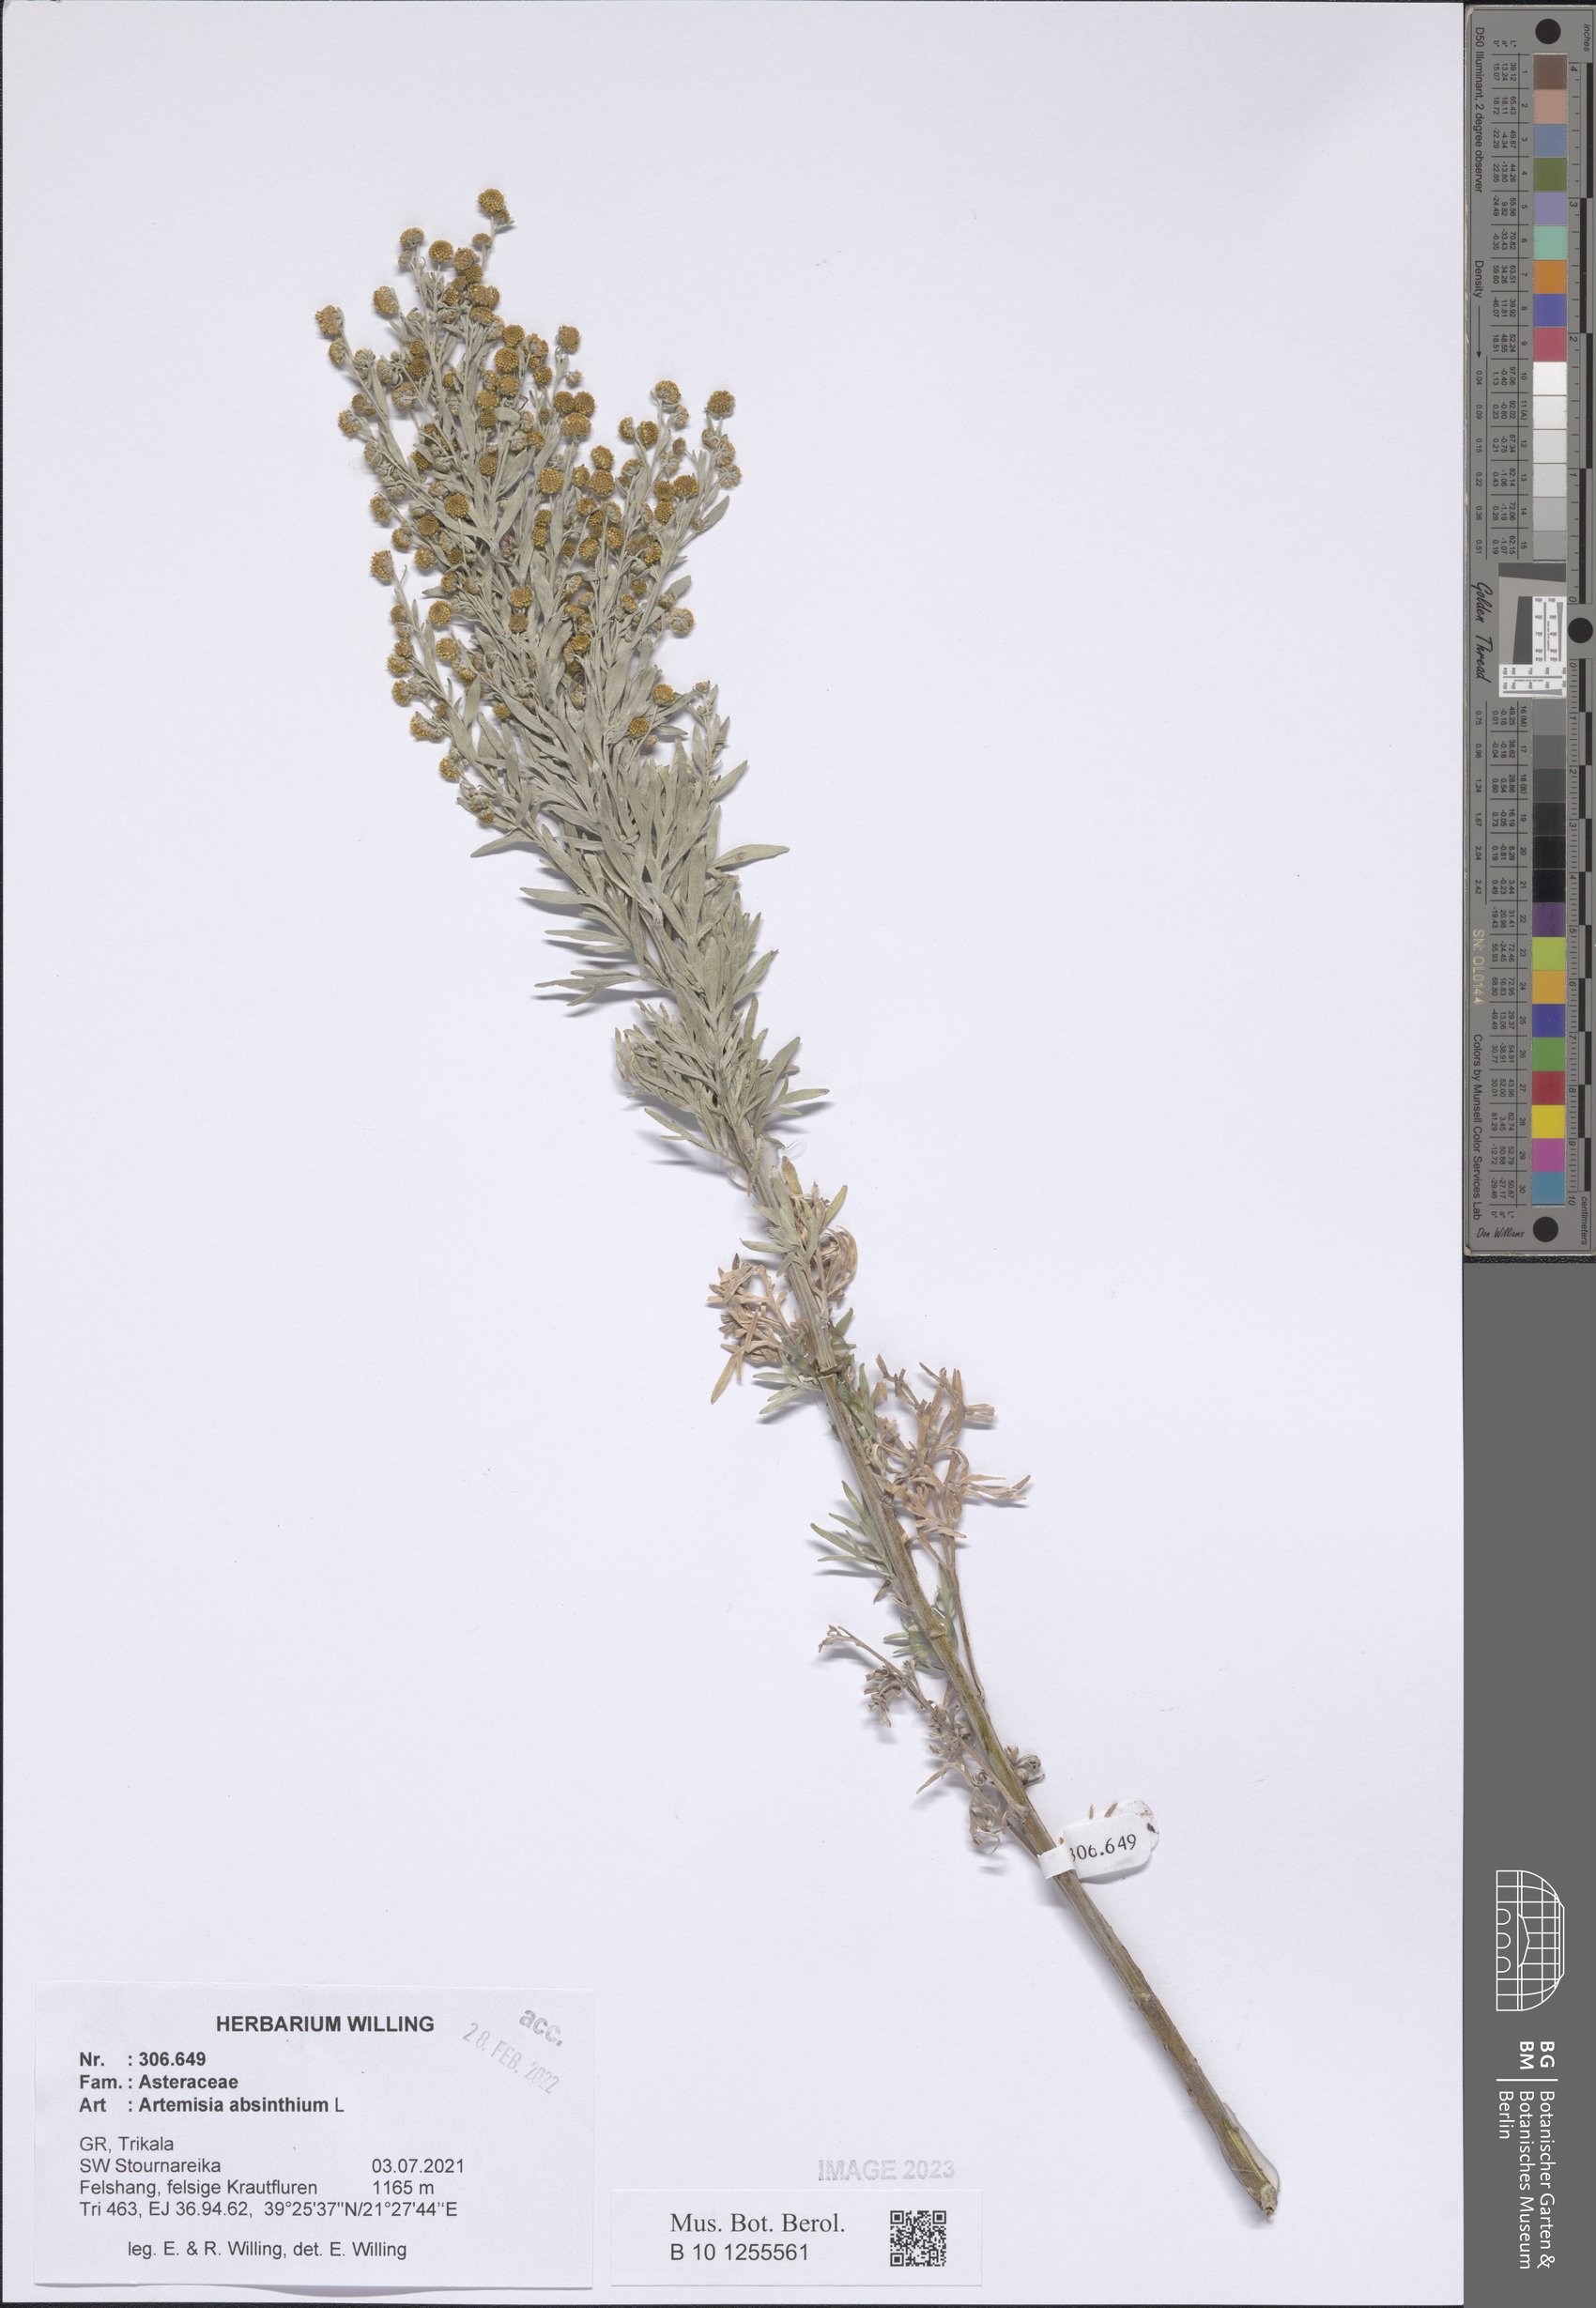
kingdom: Plantae
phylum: Tracheophyta
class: Magnoliopsida
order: Asterales
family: Asteraceae
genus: Artemisia
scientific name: Artemisia absinthium
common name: Wormwood
